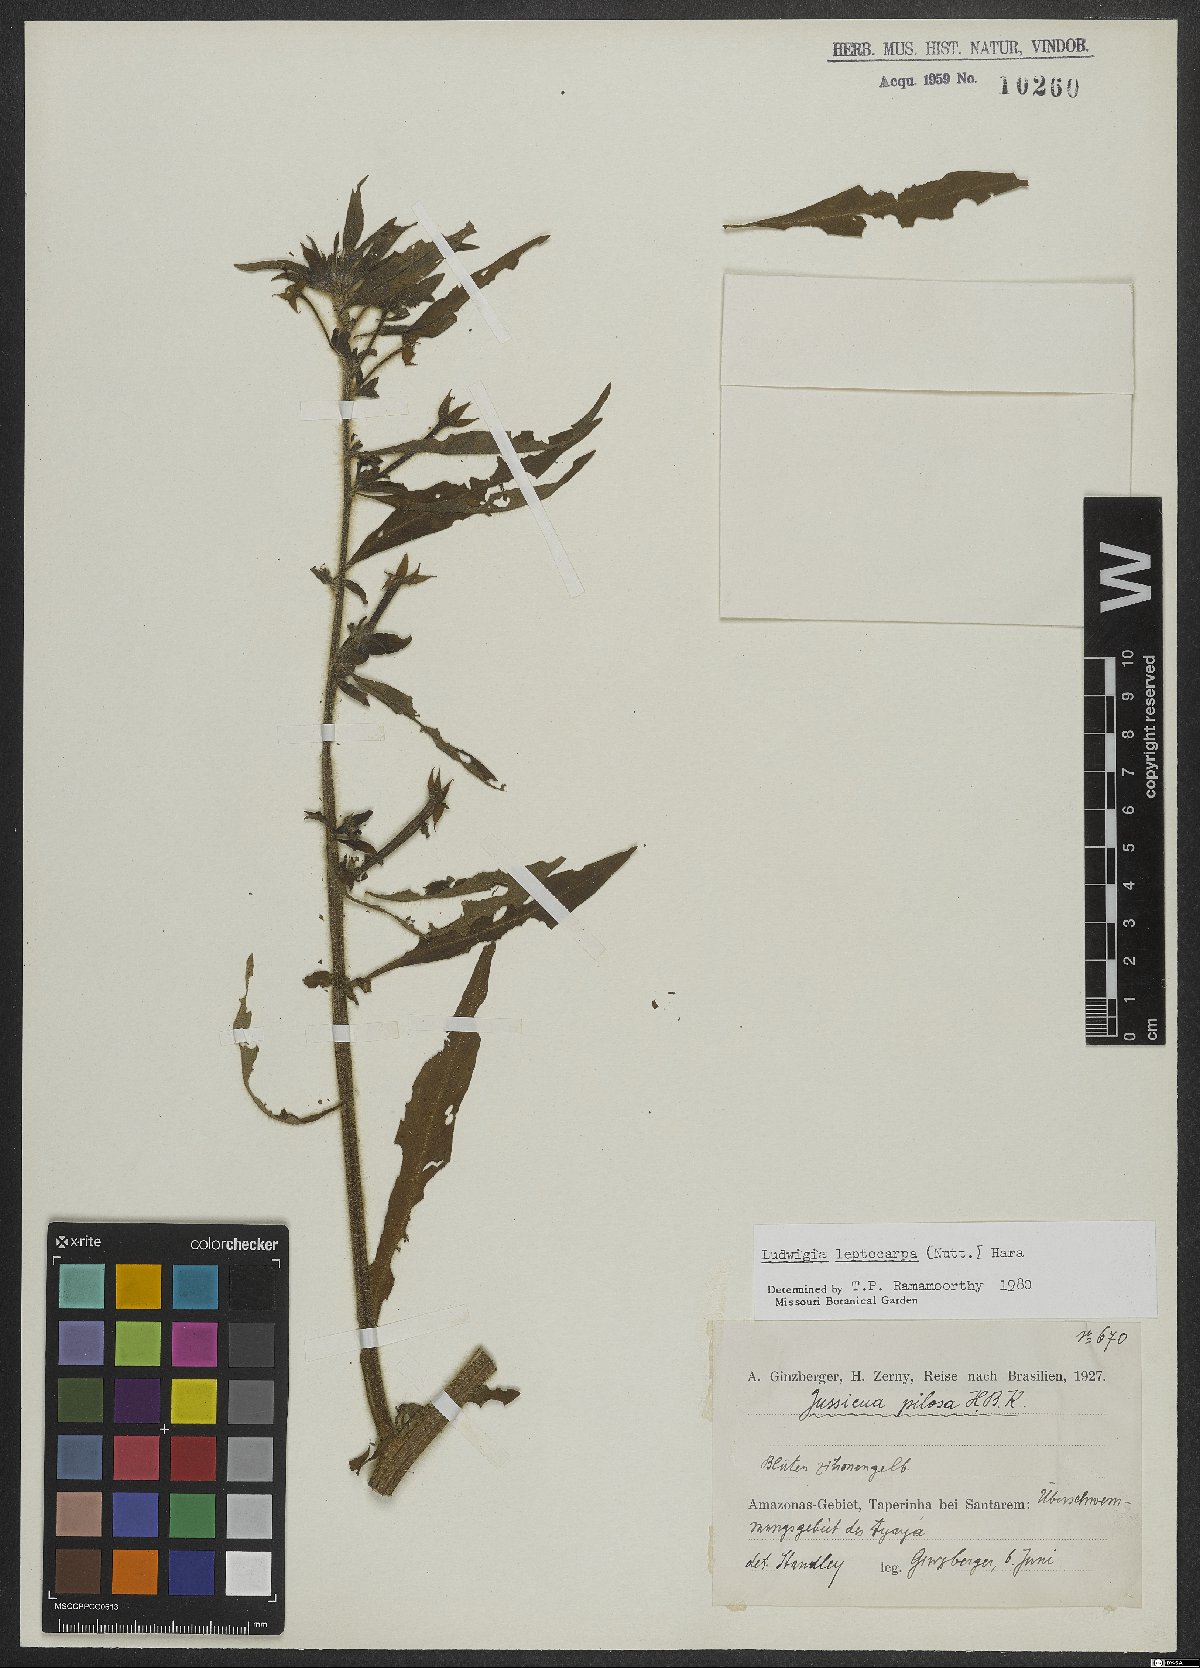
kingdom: Plantae
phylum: Tracheophyta
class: Magnoliopsida
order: Myrtales
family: Onagraceae
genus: Ludwigia
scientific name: Ludwigia leptocarpa
